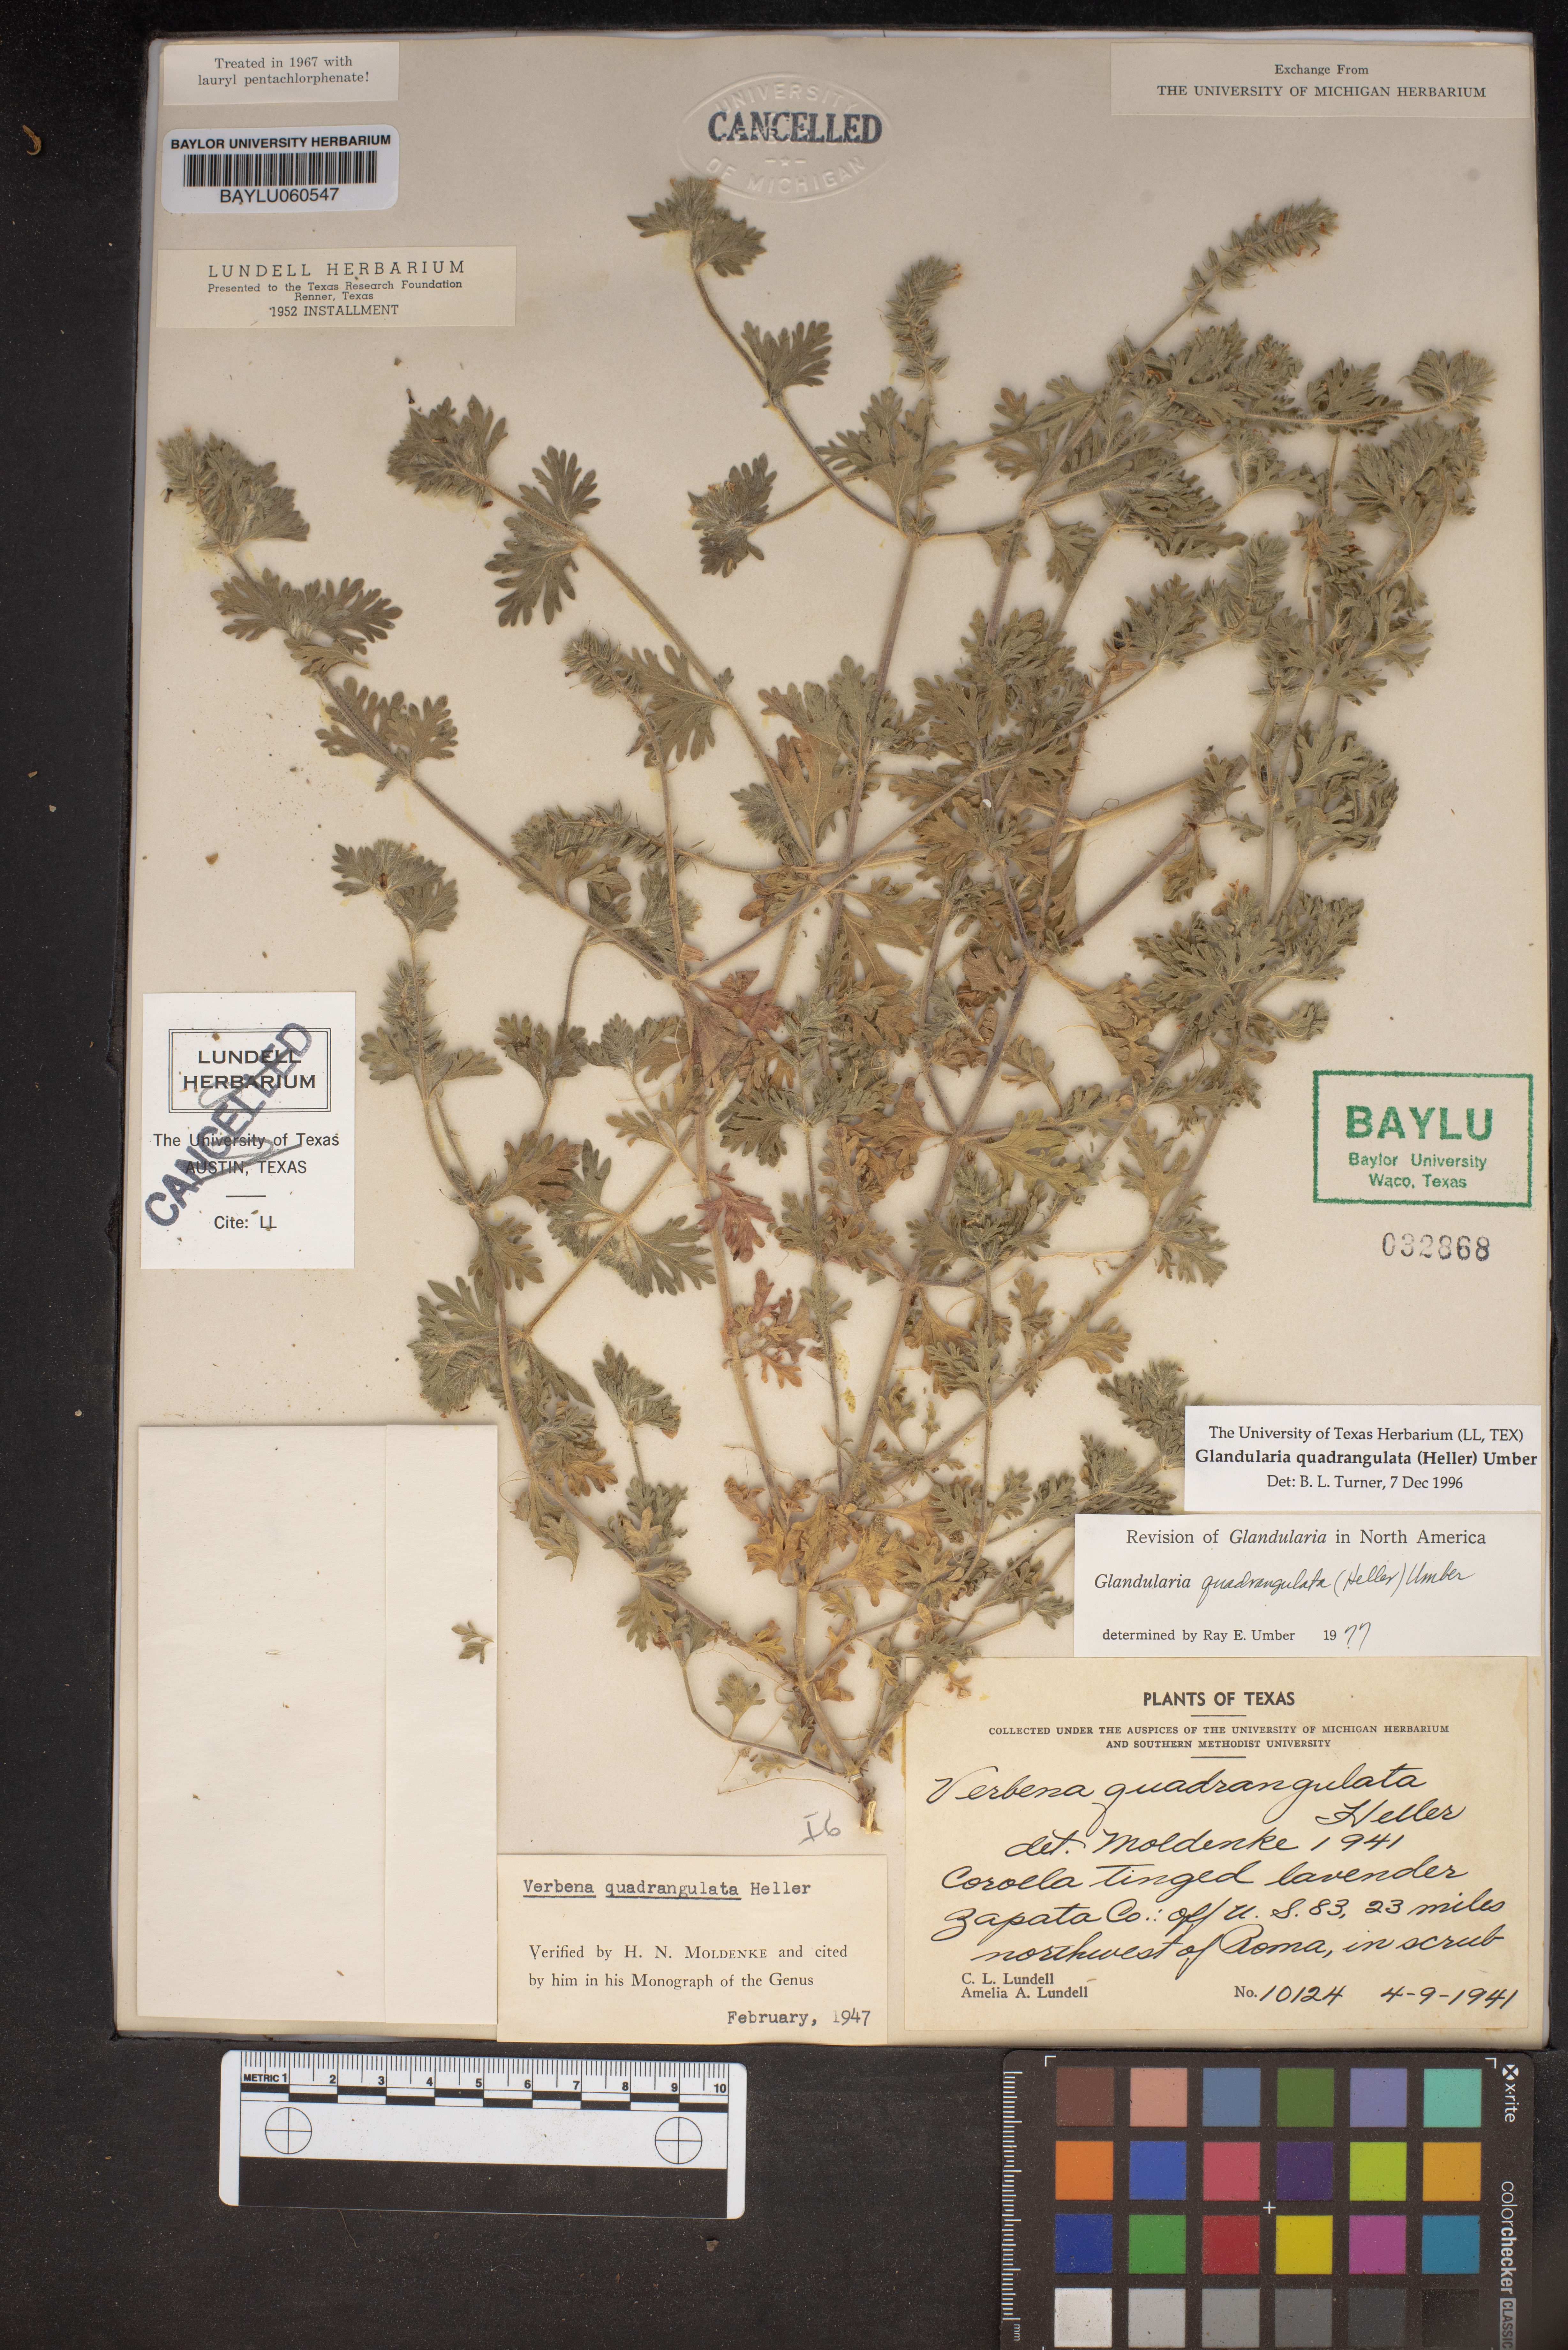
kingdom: Plantae
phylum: Tracheophyta
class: Magnoliopsida
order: Lamiales
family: Verbenaceae
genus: Verbena
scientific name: Verbena quadrangulata
